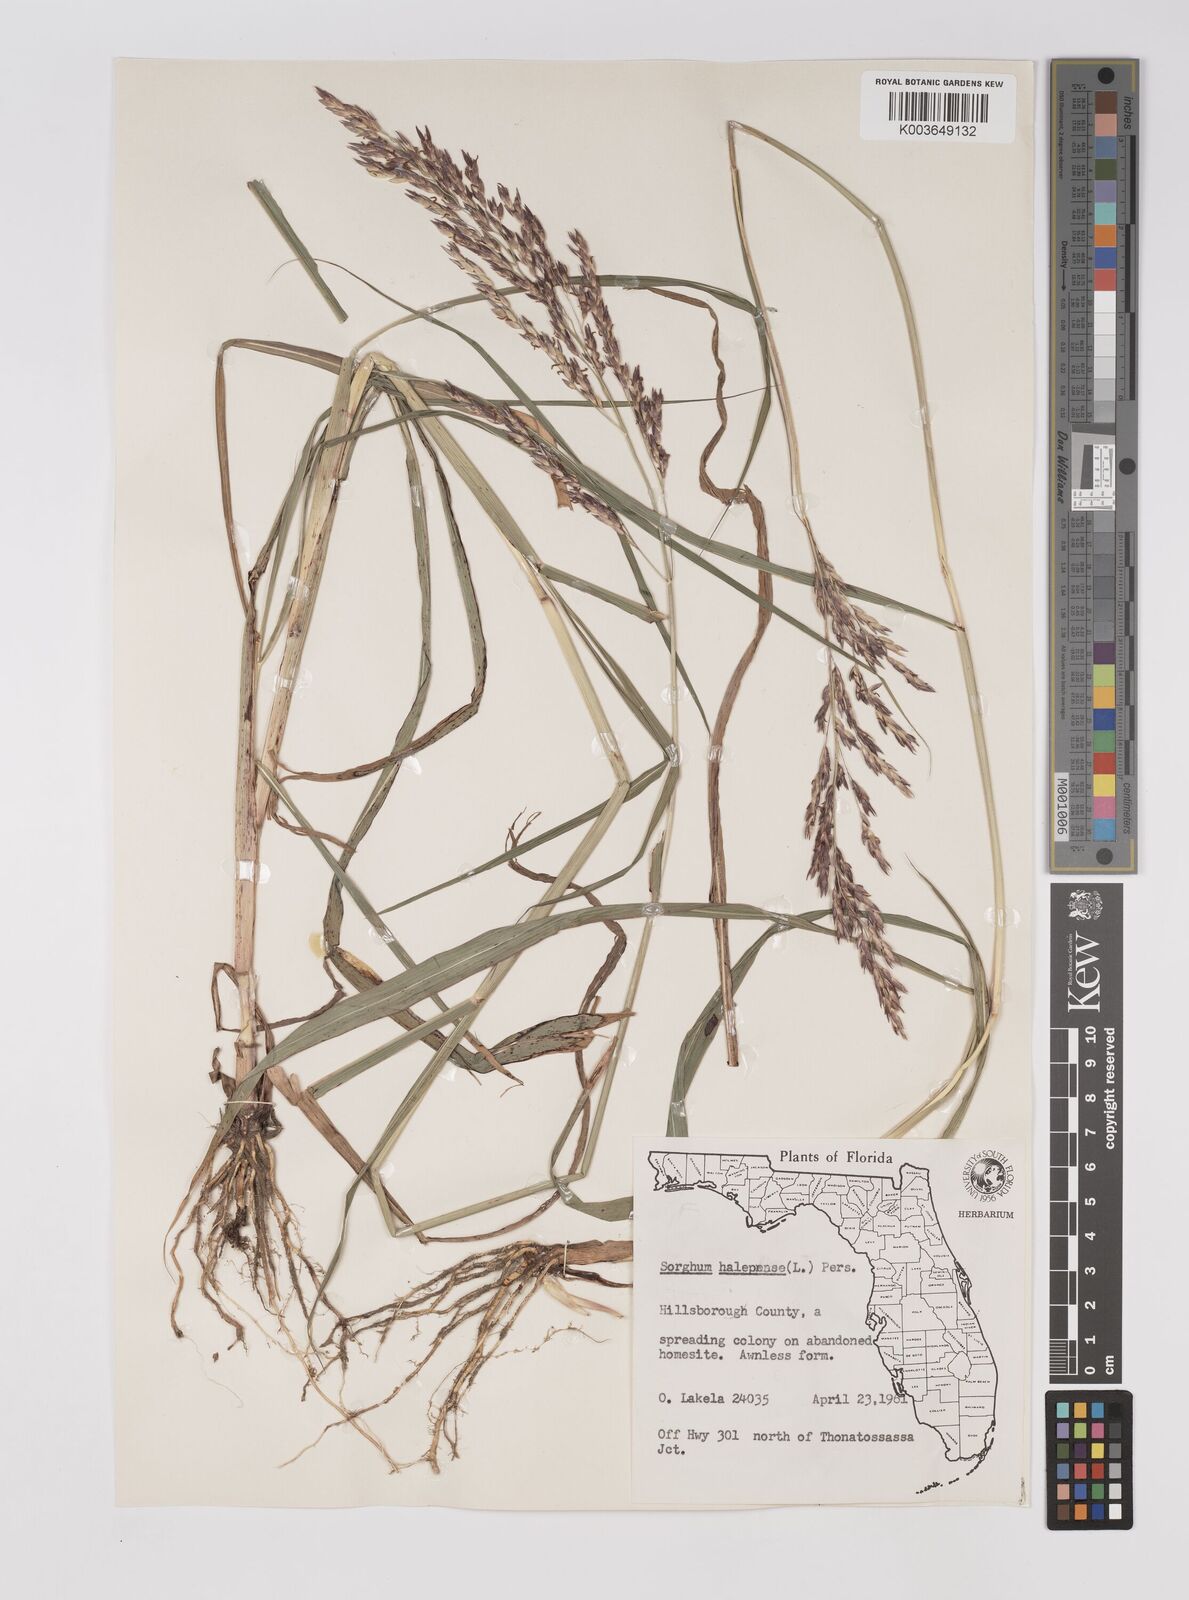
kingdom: Plantae
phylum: Tracheophyta
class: Liliopsida
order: Poales
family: Poaceae
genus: Sorghum
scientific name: Sorghum halepense
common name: Johnson-grass
